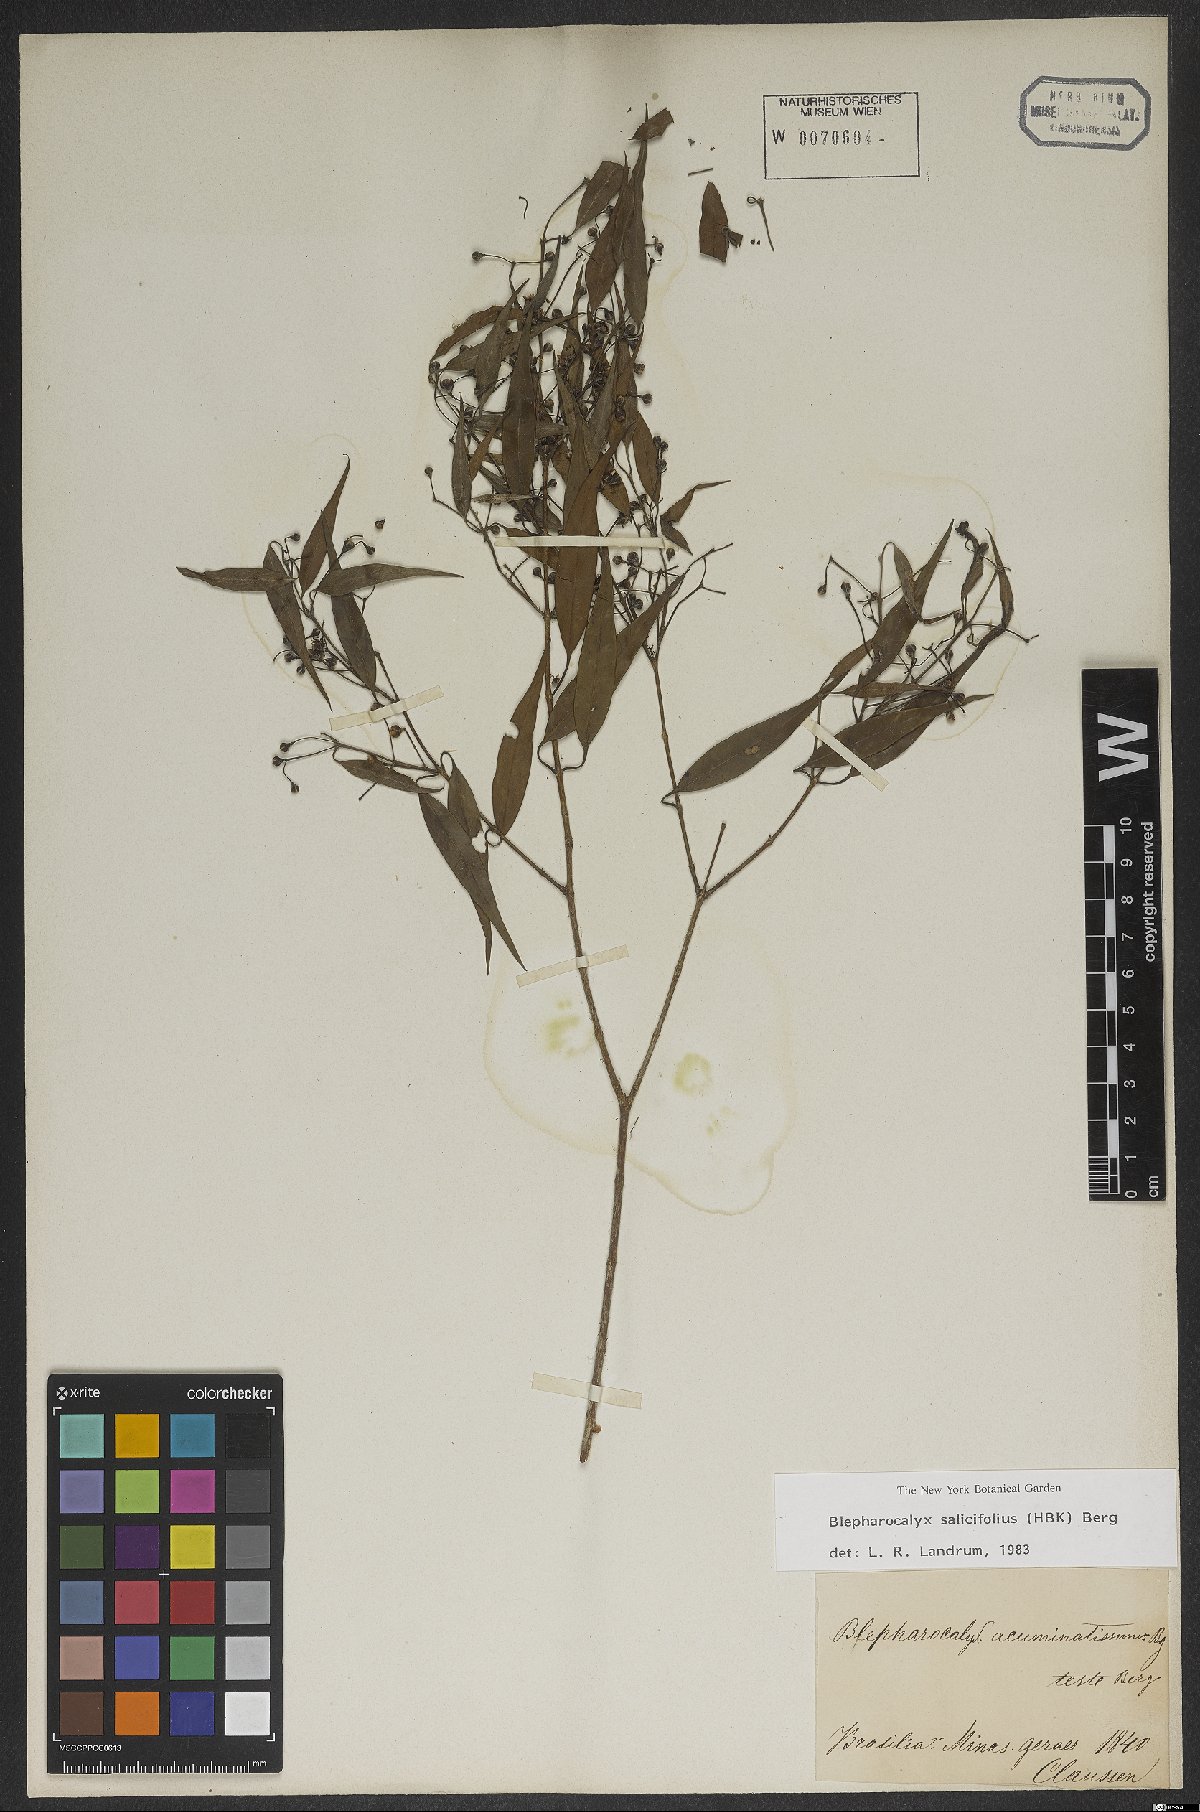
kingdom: Plantae
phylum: Tracheophyta
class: Magnoliopsida
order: Myrtales
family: Myrtaceae
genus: Blepharocalyx
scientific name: Blepharocalyx salicifolius
